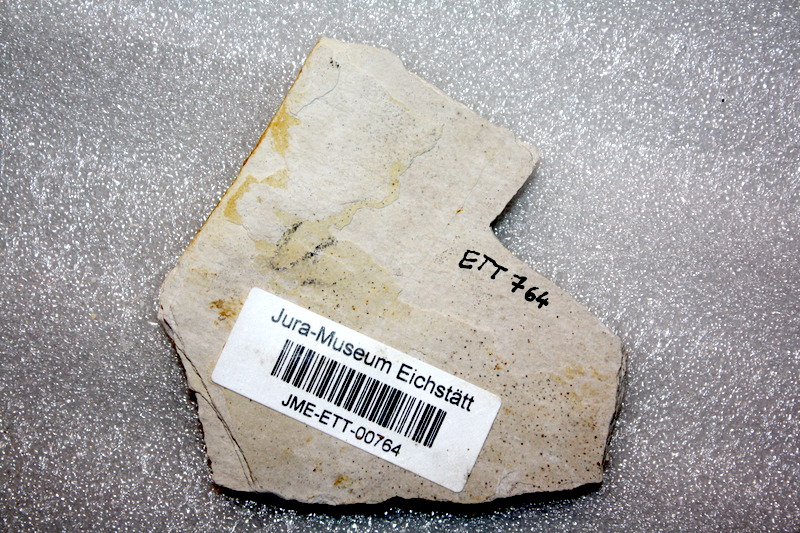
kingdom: Animalia
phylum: Chordata
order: Salmoniformes
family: Orthogonikleithridae
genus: Orthogonikleithrus
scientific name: Orthogonikleithrus hoelli
